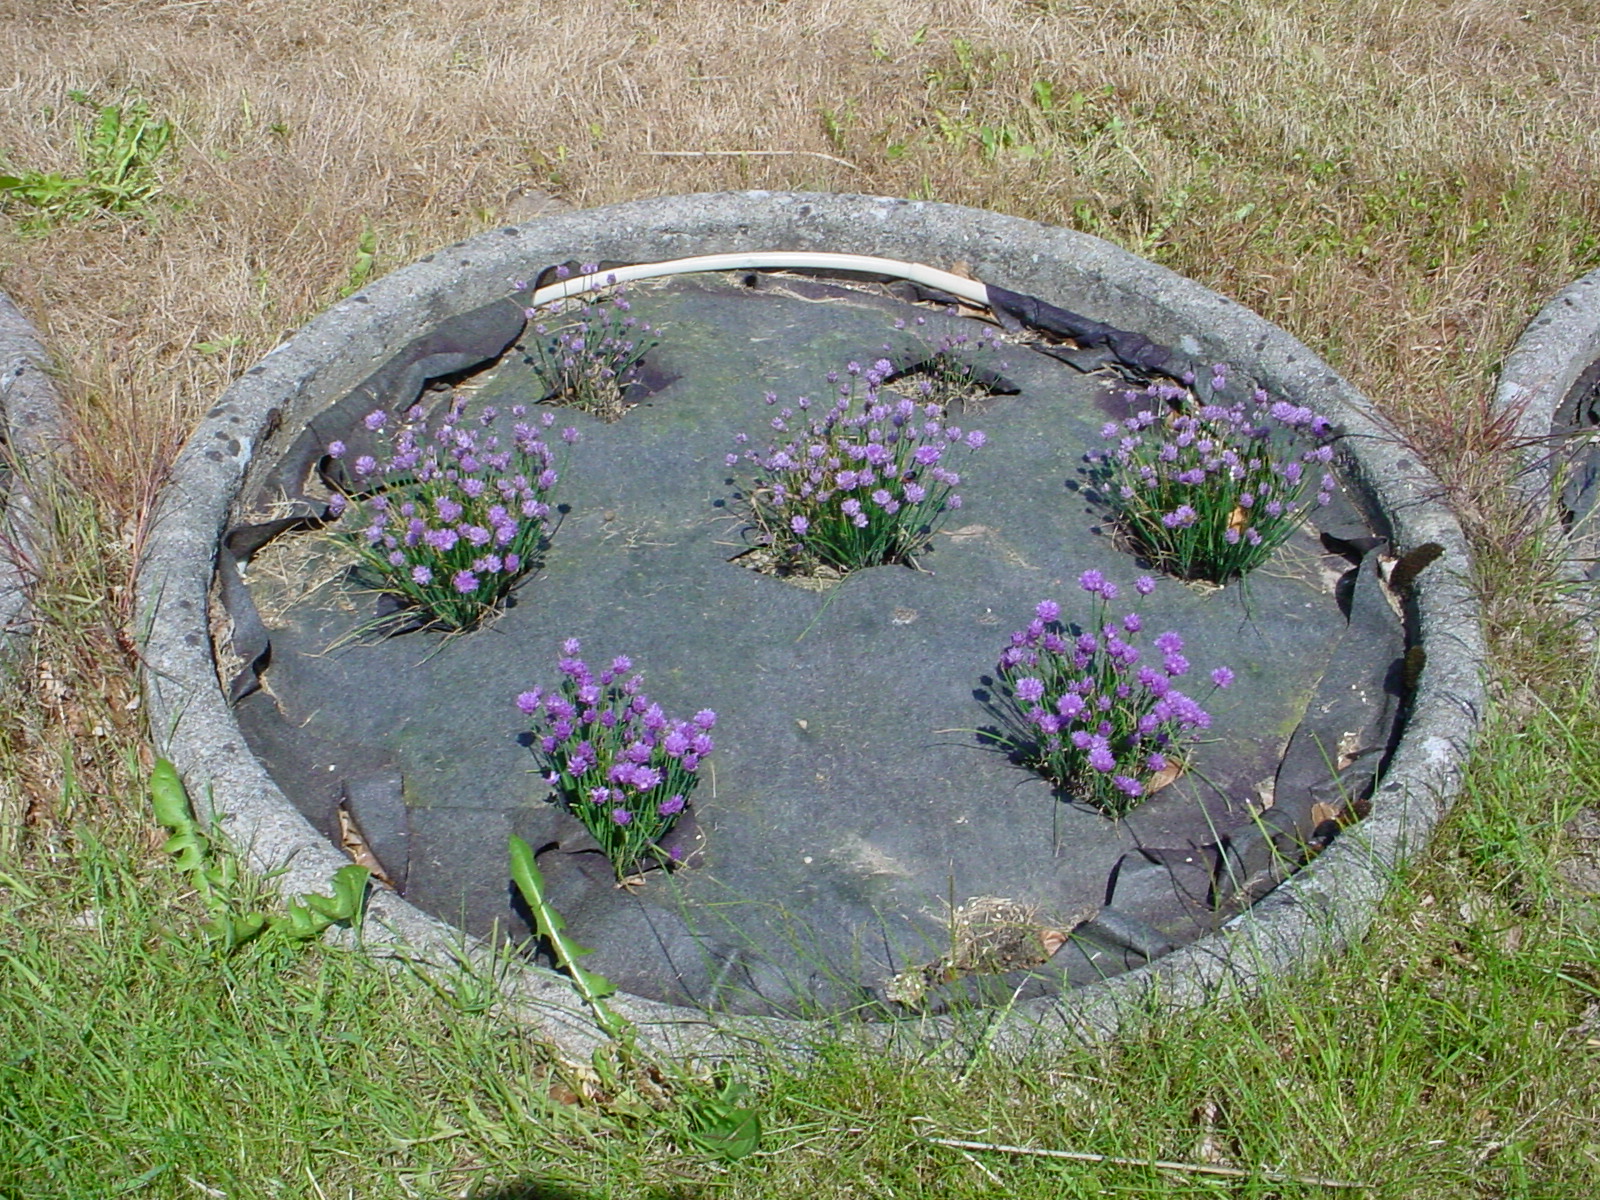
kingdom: Plantae
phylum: Tracheophyta
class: Liliopsida
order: Asparagales
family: Amaryllidaceae
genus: Allium
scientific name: Allium schoenoprasum
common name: Chives
